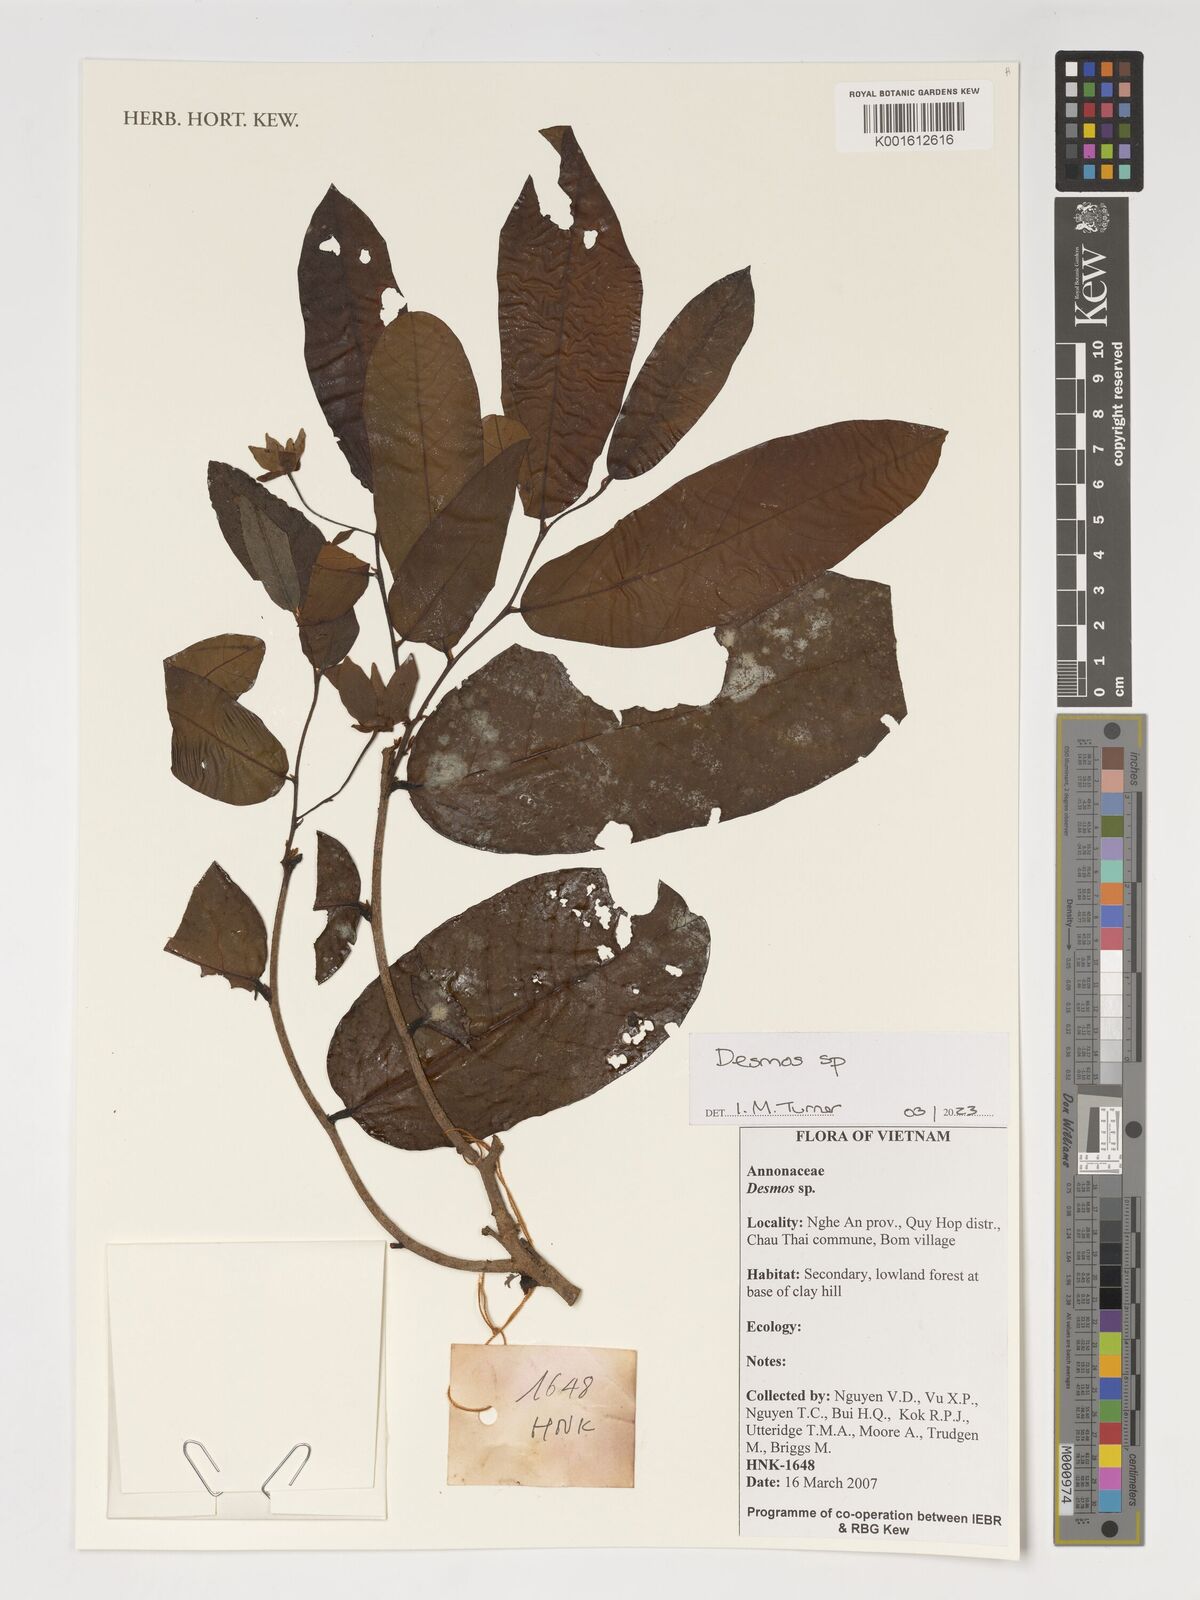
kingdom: Plantae
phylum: Tracheophyta
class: Magnoliopsida
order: Magnoliales
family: Annonaceae
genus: Desmos
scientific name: Desmos
